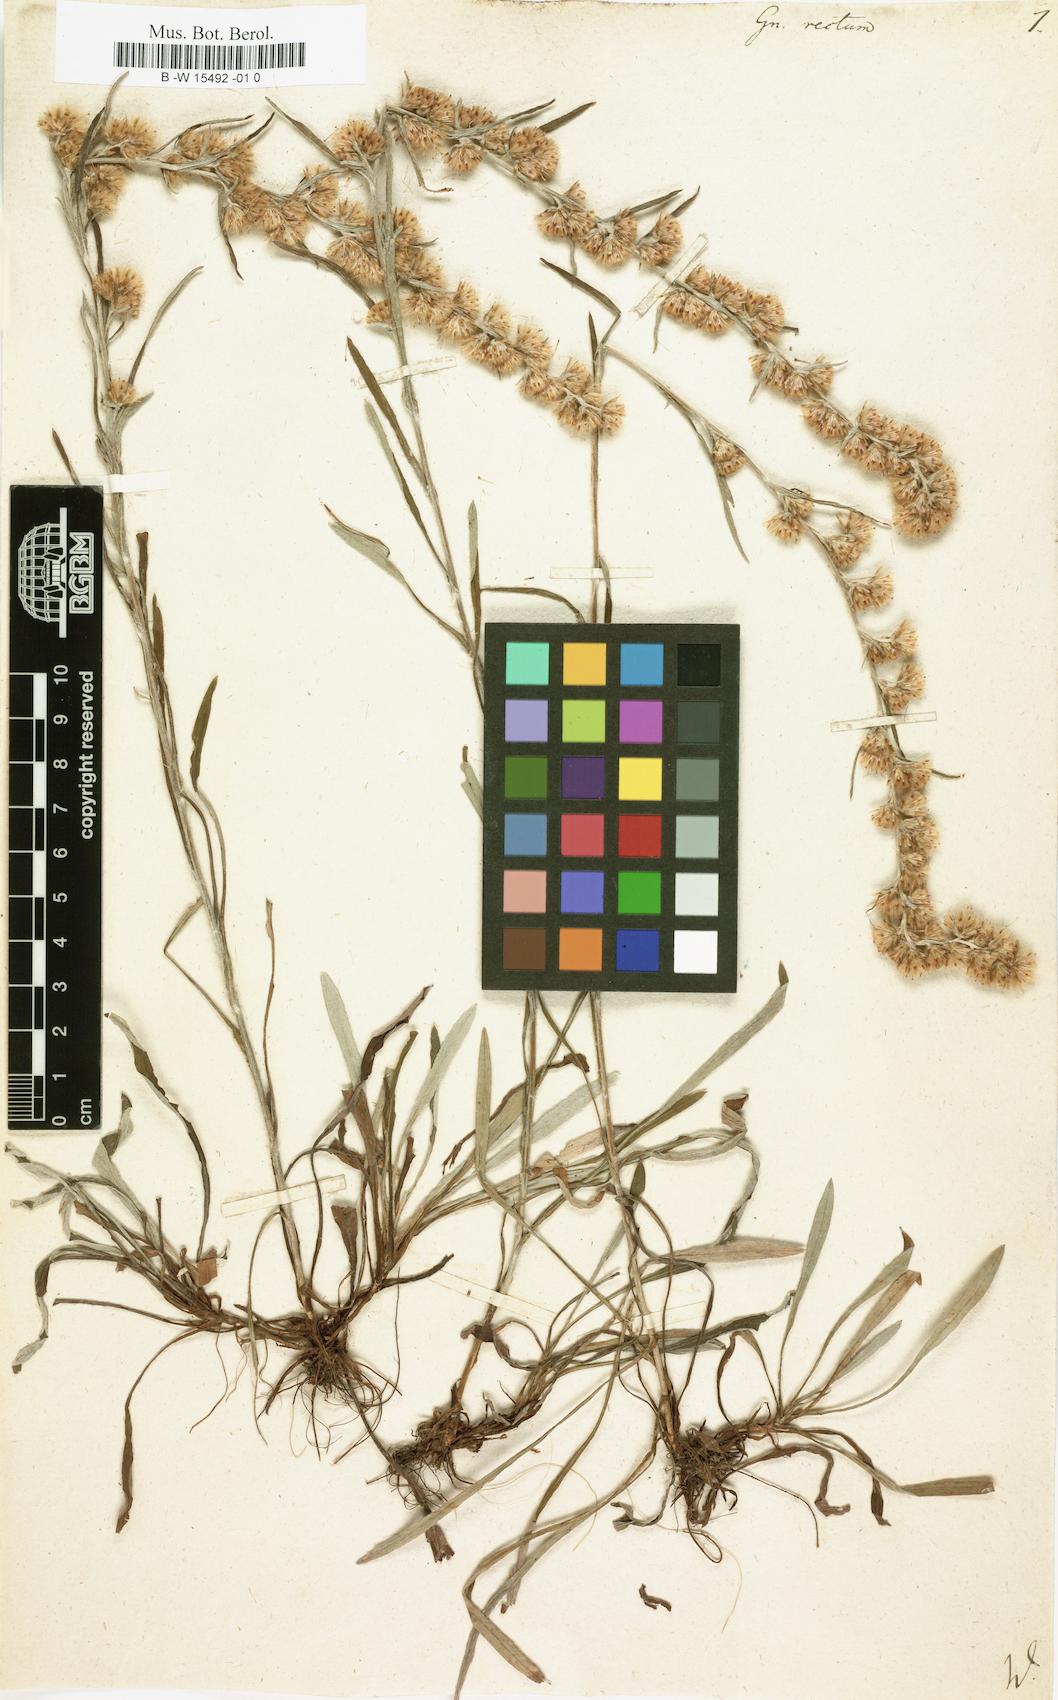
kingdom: Plantae
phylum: Tracheophyta
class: Magnoliopsida
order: Asterales
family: Asteraceae
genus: Omalotheca
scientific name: Omalotheca
